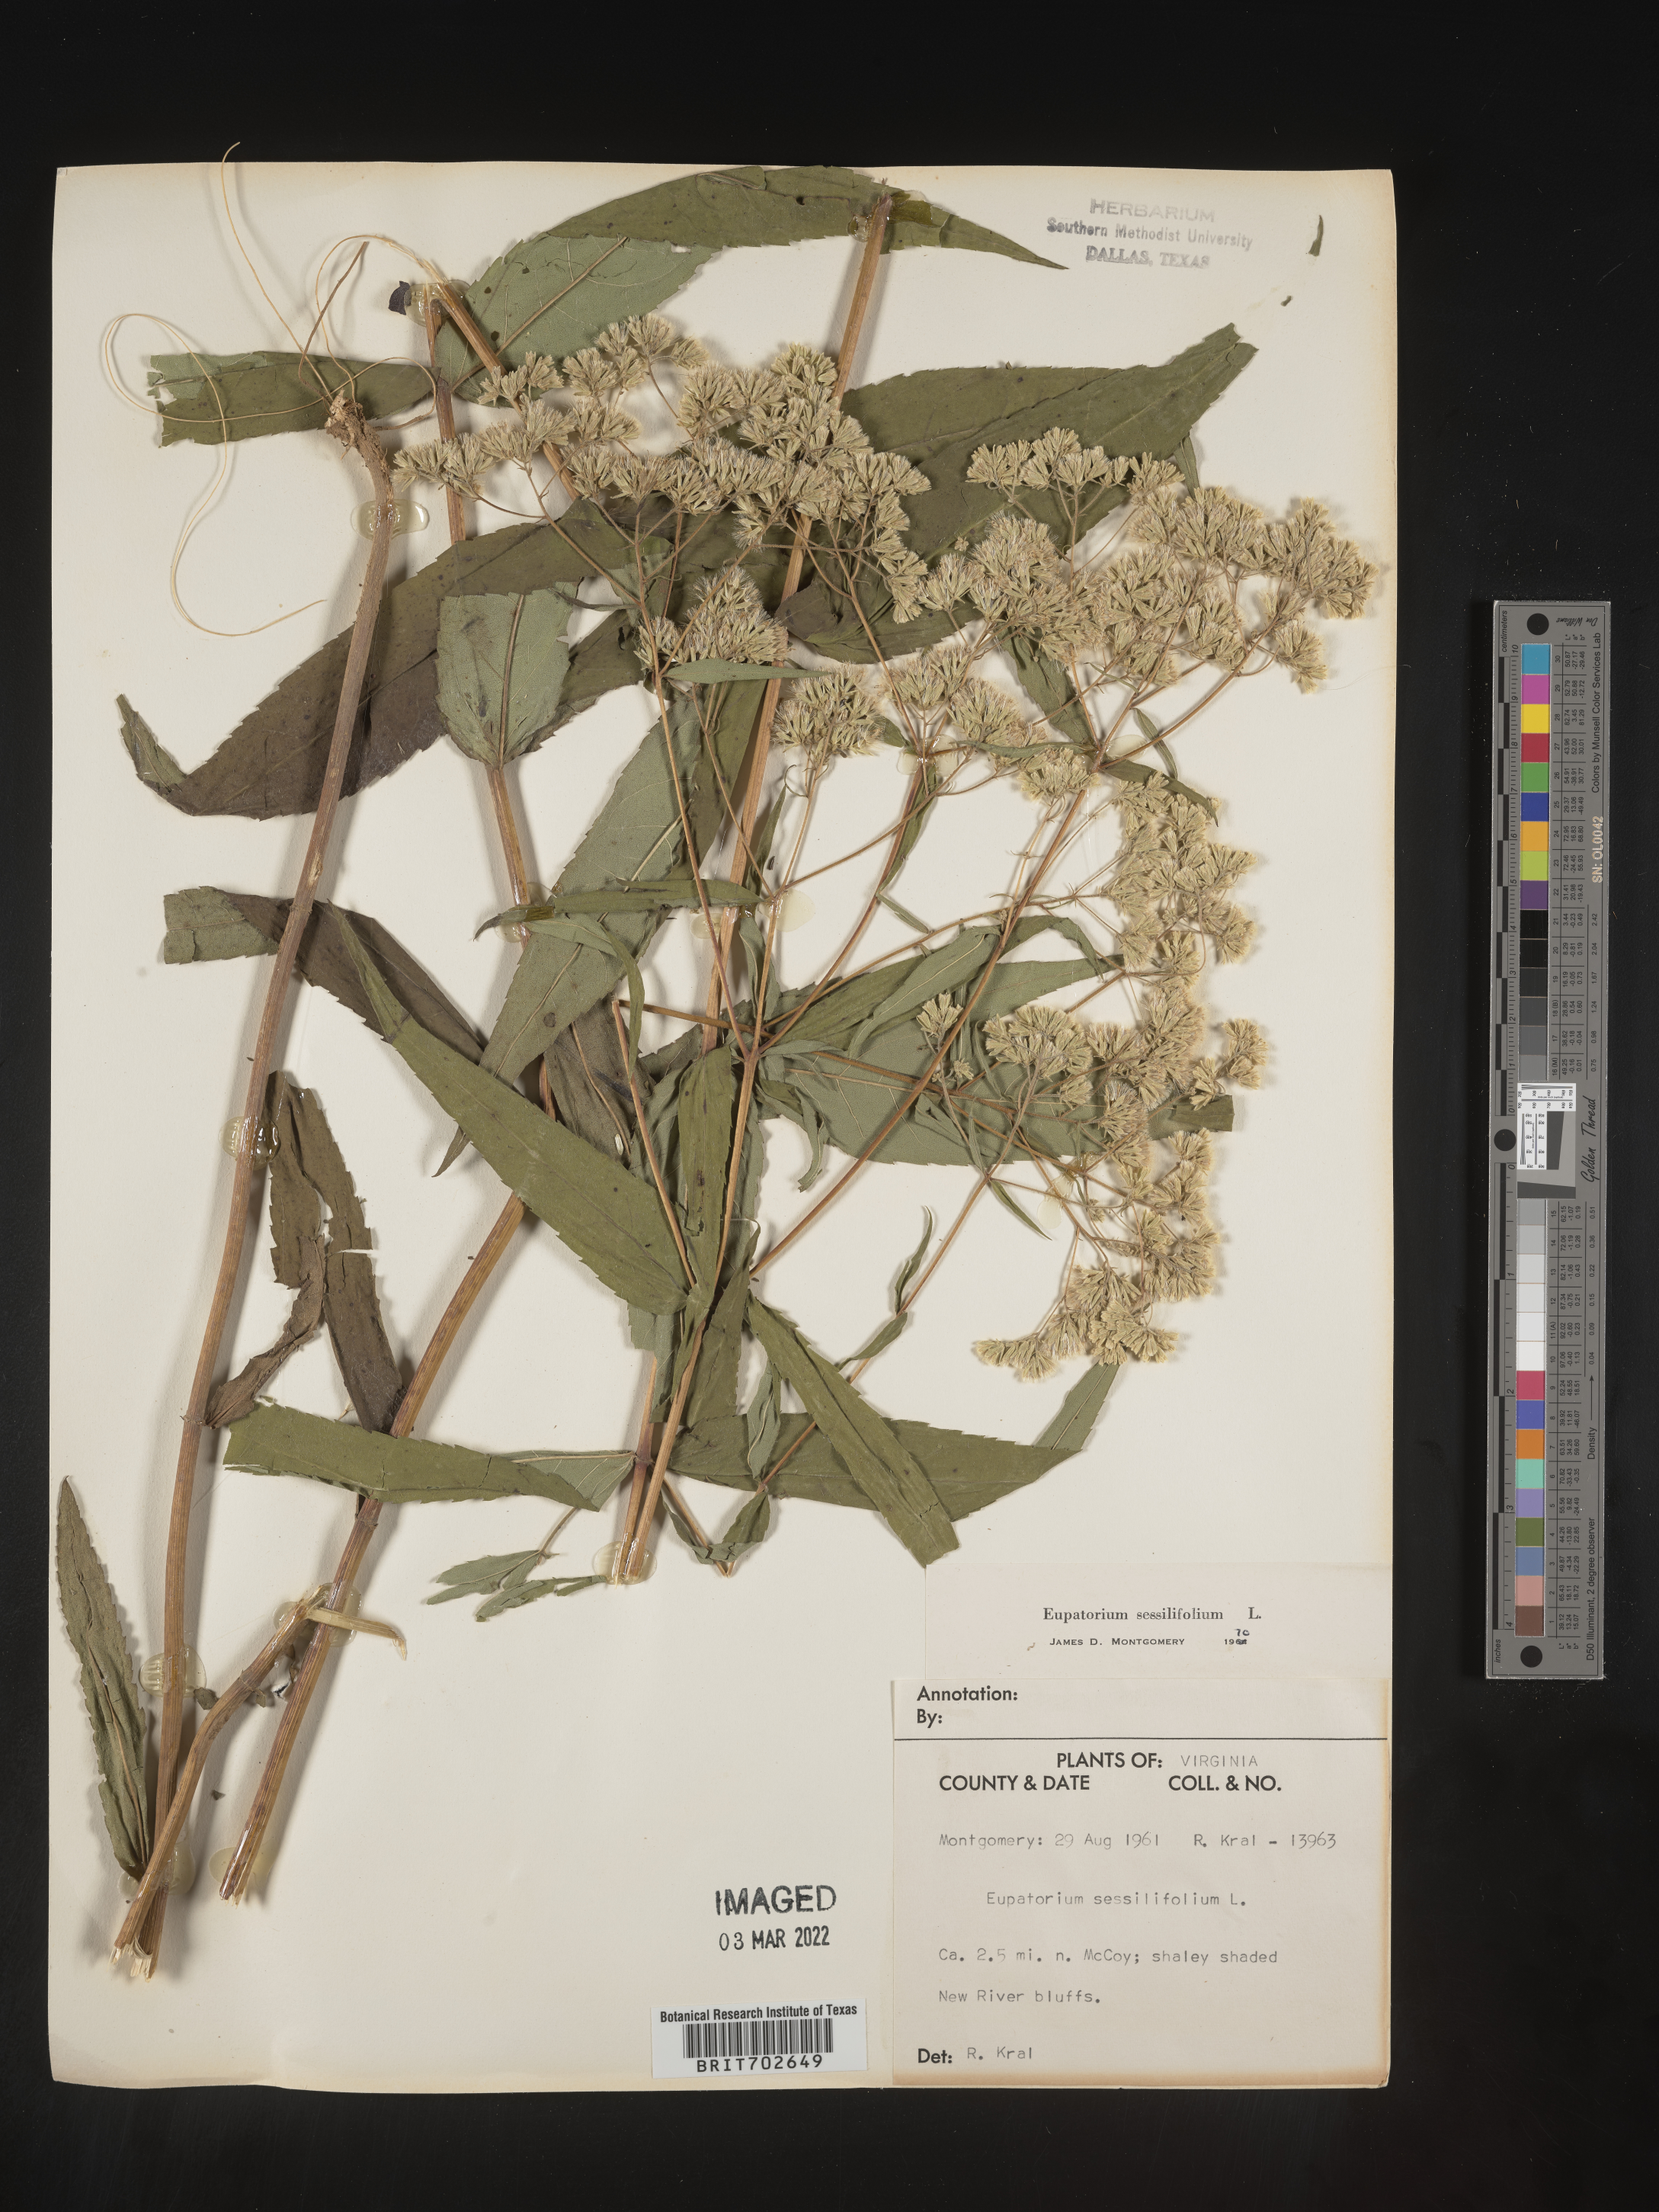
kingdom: Plantae
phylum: Tracheophyta
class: Magnoliopsida
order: Asterales
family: Asteraceae
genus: Eupatorium
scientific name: Eupatorium sessilifolium
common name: Upland boneset
